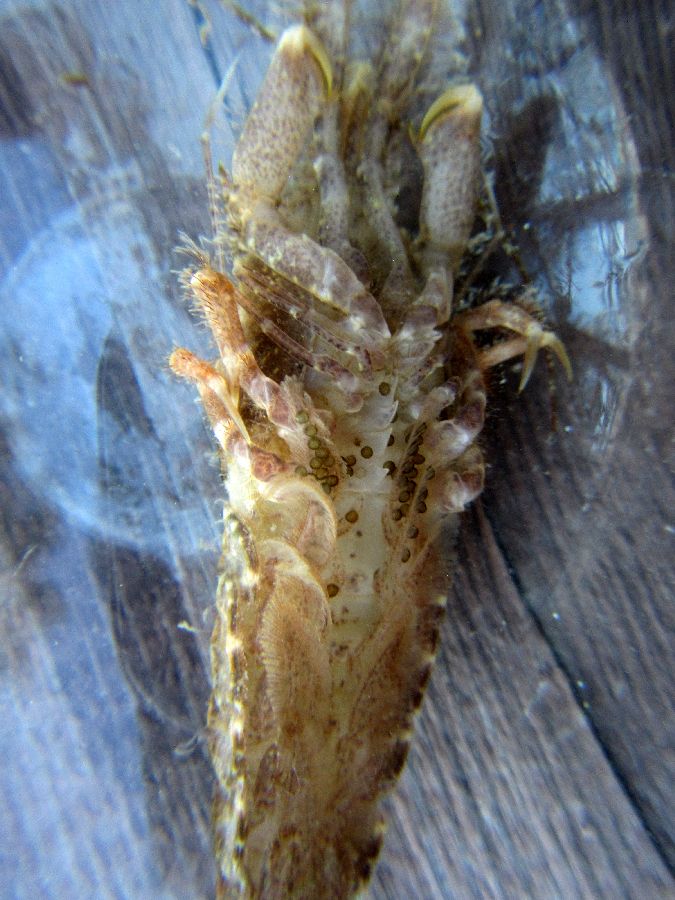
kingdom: Animalia
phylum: Arthropoda
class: Malacostraca
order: Decapoda
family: Crangonidae
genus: Sclerocrangon
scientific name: Sclerocrangon boreas
